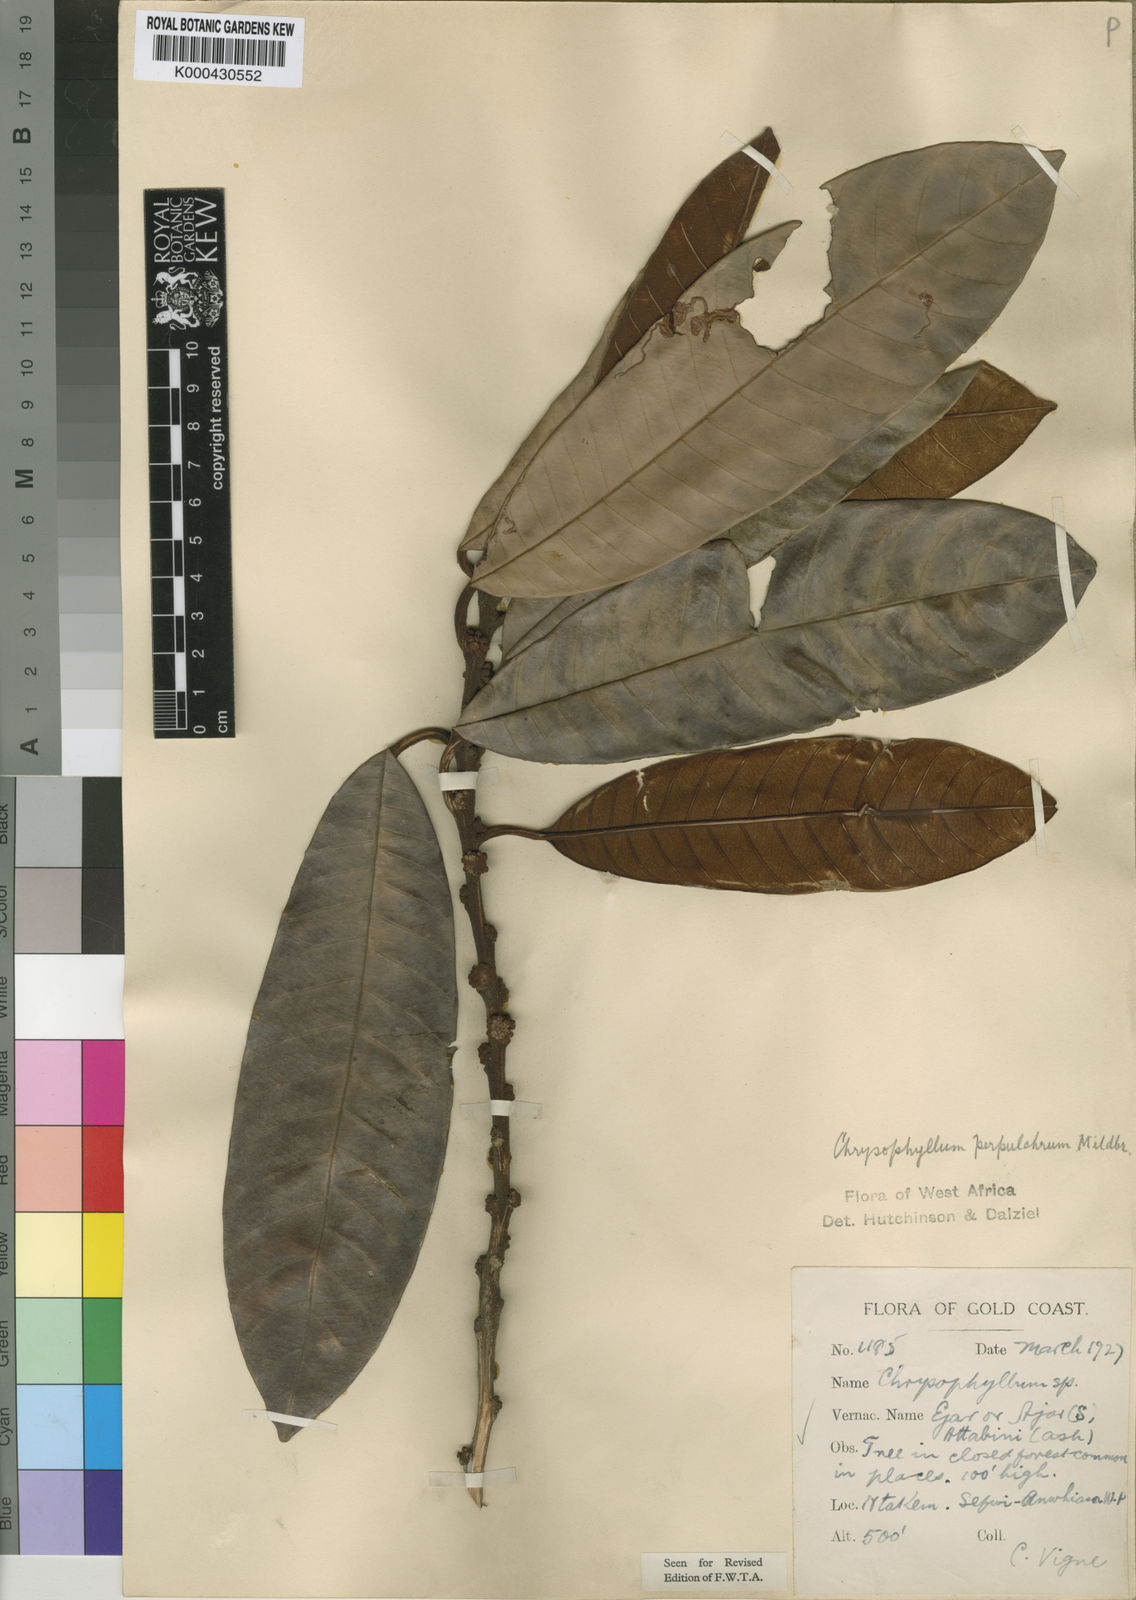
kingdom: Plantae
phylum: Tracheophyta
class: Magnoliopsida
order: Ericales
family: Sapotaceae
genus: Gambeya
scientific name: Gambeya perpulchra
